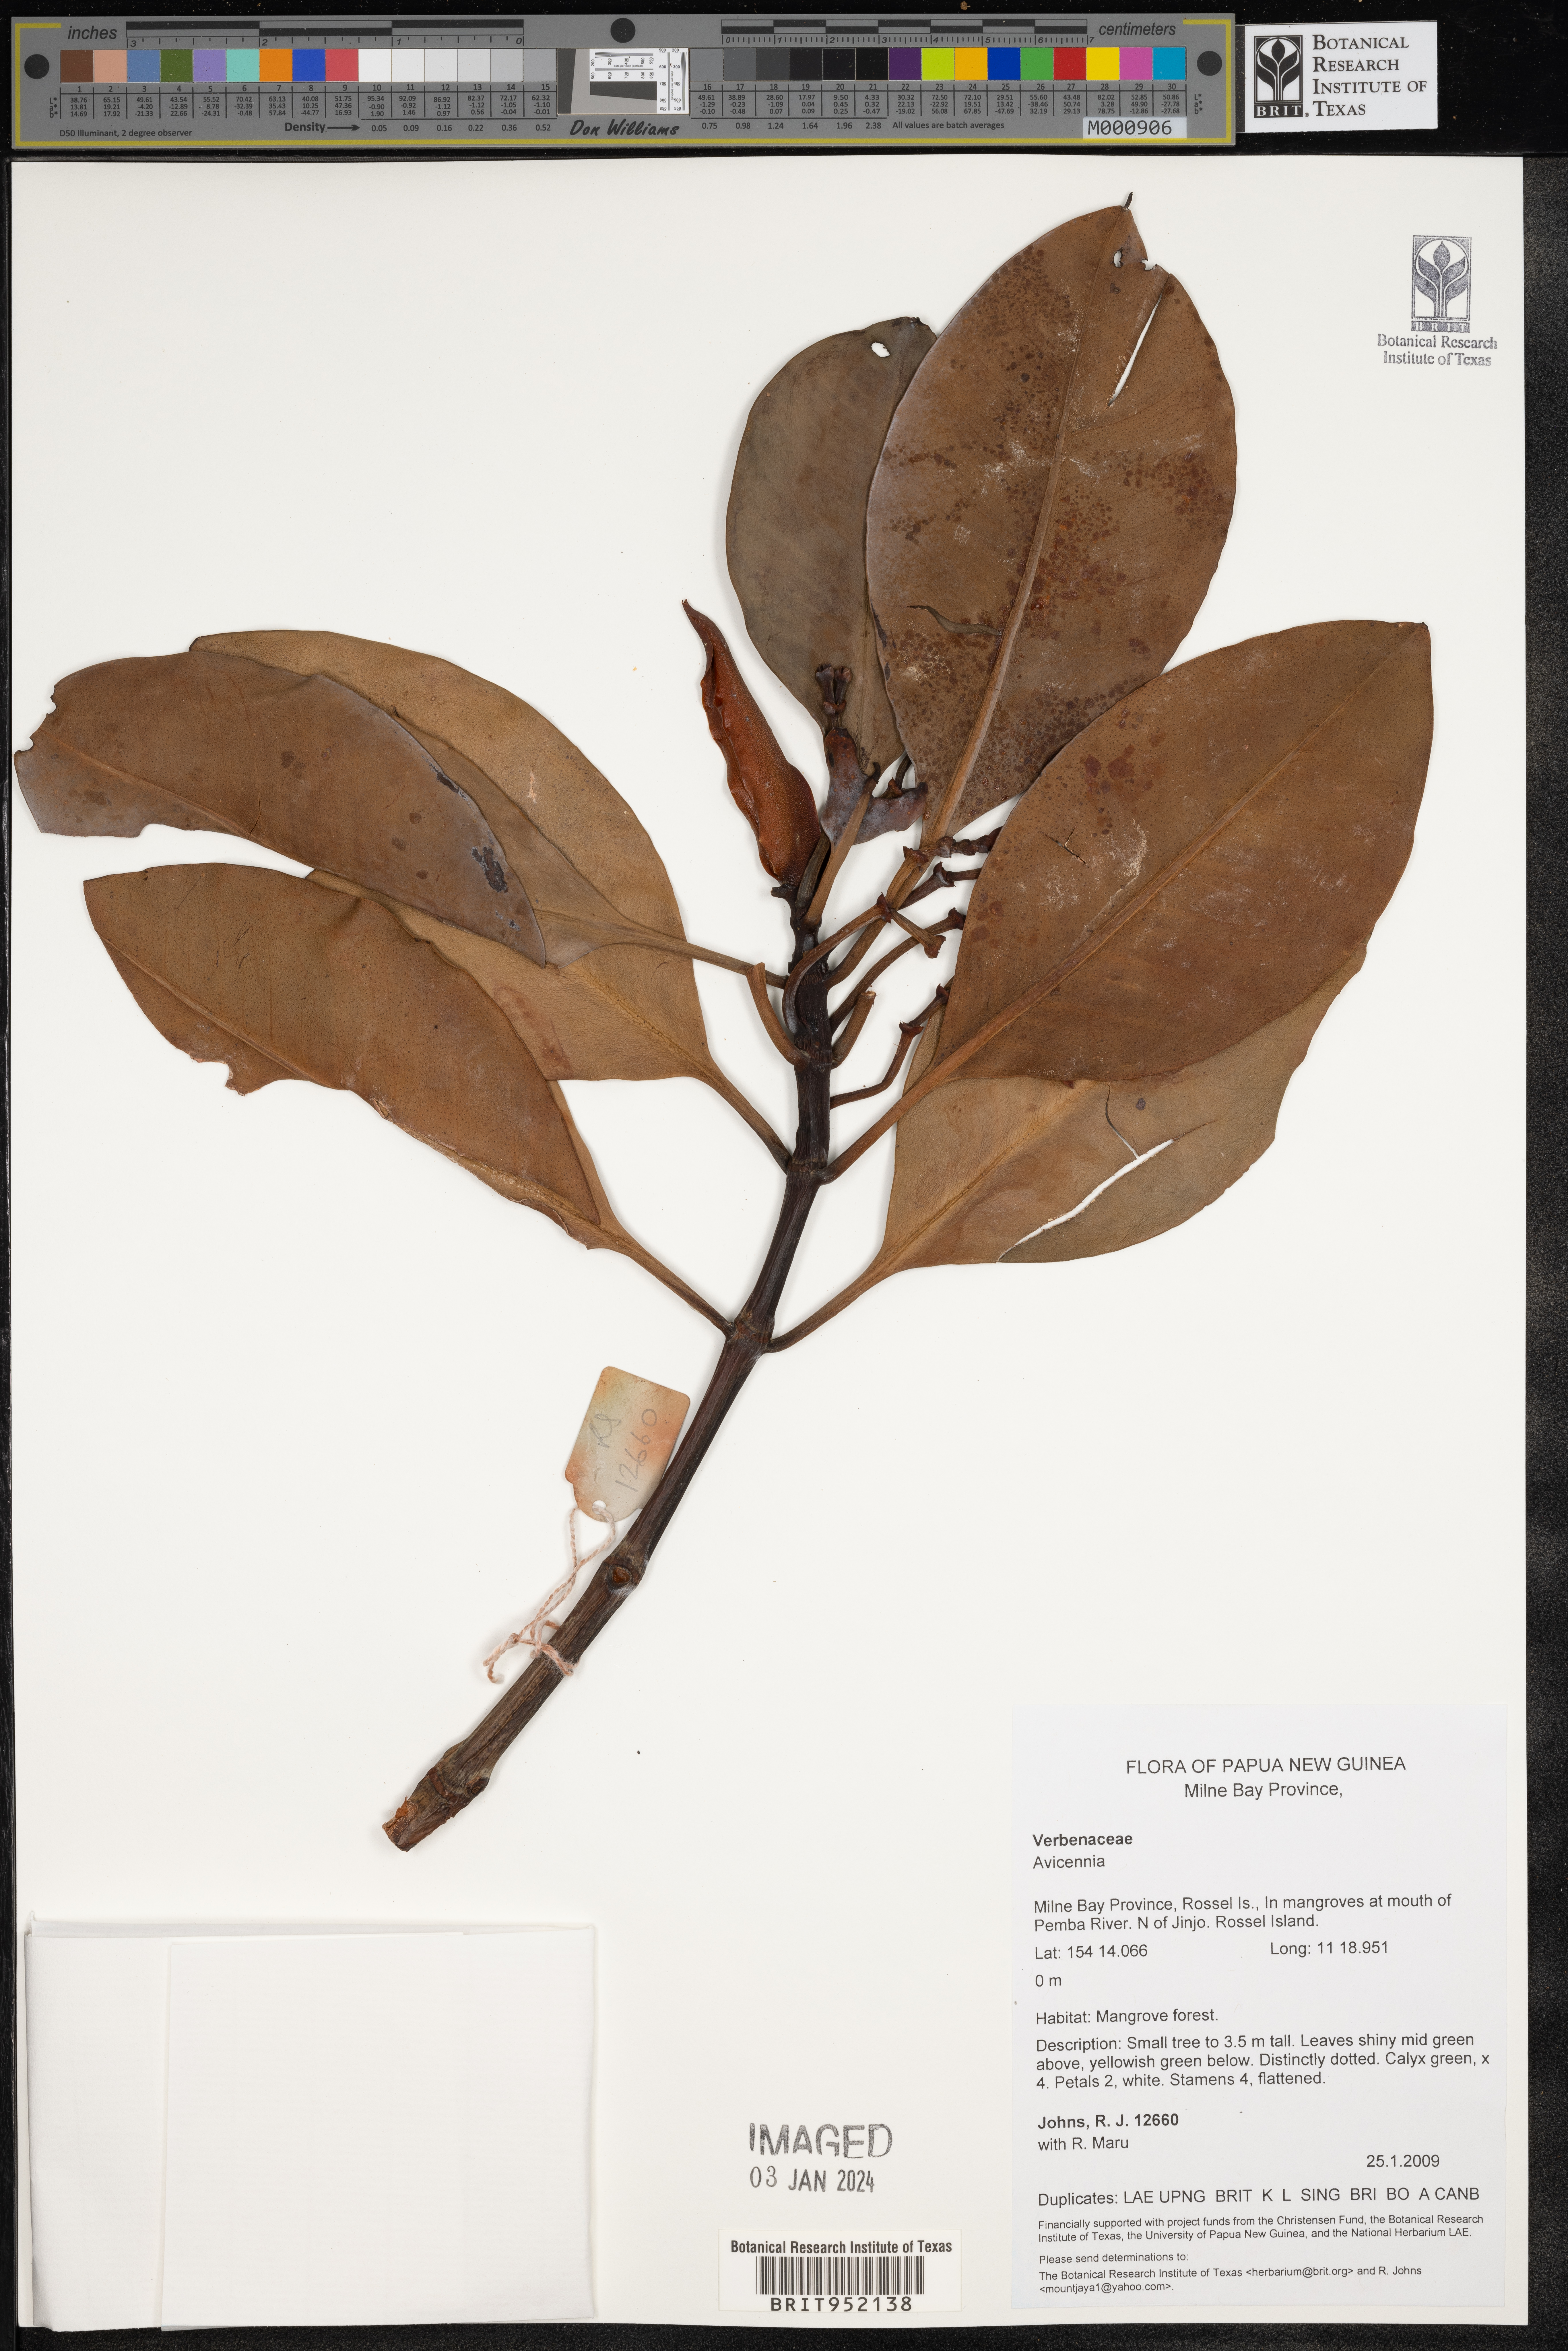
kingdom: Plantae
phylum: Tracheophyta
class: Magnoliopsida
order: Lamiales
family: Acanthaceae
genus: Avicennia
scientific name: Avicennia
